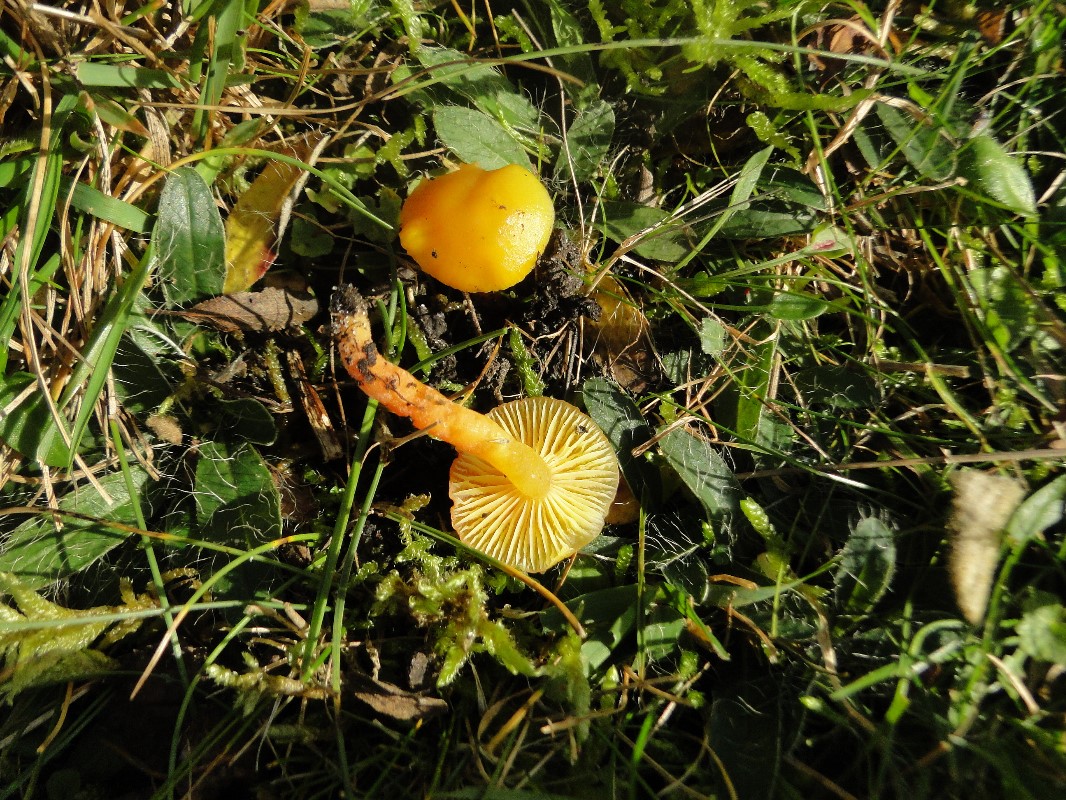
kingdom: Fungi
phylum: Basidiomycota
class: Agaricomycetes
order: Agaricales
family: Hygrophoraceae
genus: Hygrocybe
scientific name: Hygrocybe ceracea
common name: voksgul vokshat
